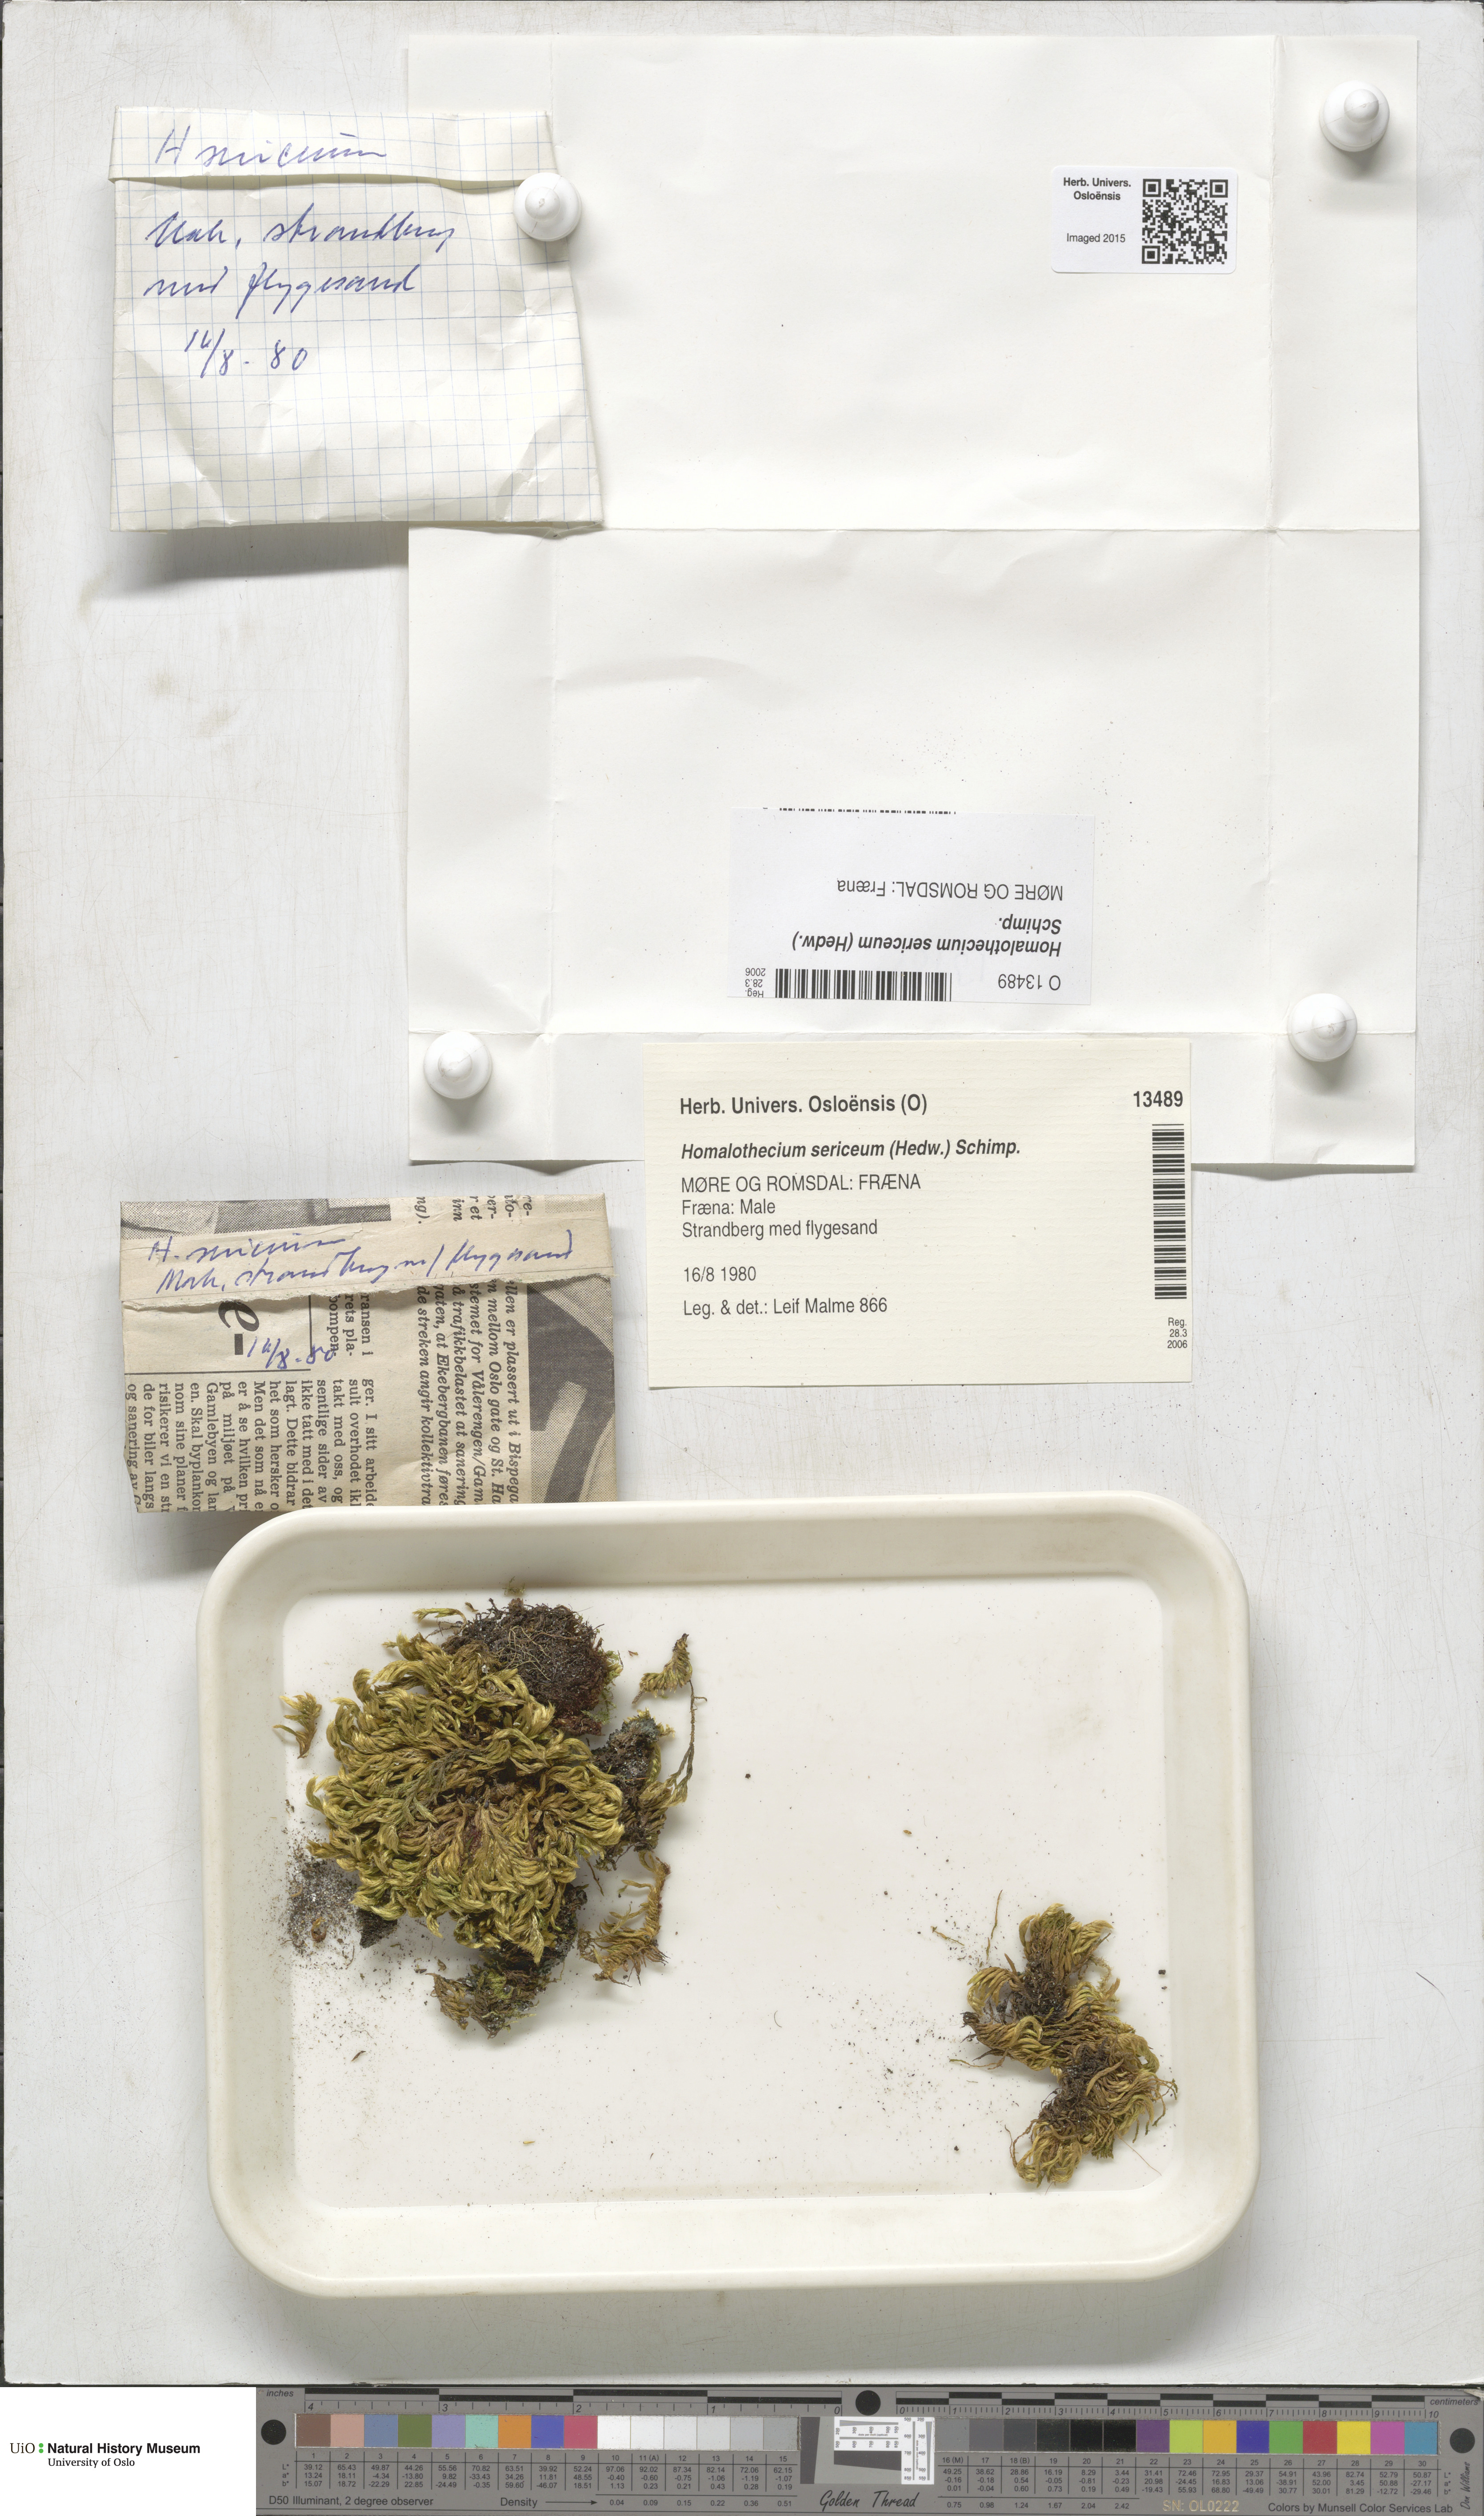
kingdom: Plantae
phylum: Bryophyta
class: Bryopsida
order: Hypnales
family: Brachytheciaceae
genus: Homalothecium
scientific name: Homalothecium sericeum
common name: Silky wall feather-moss
